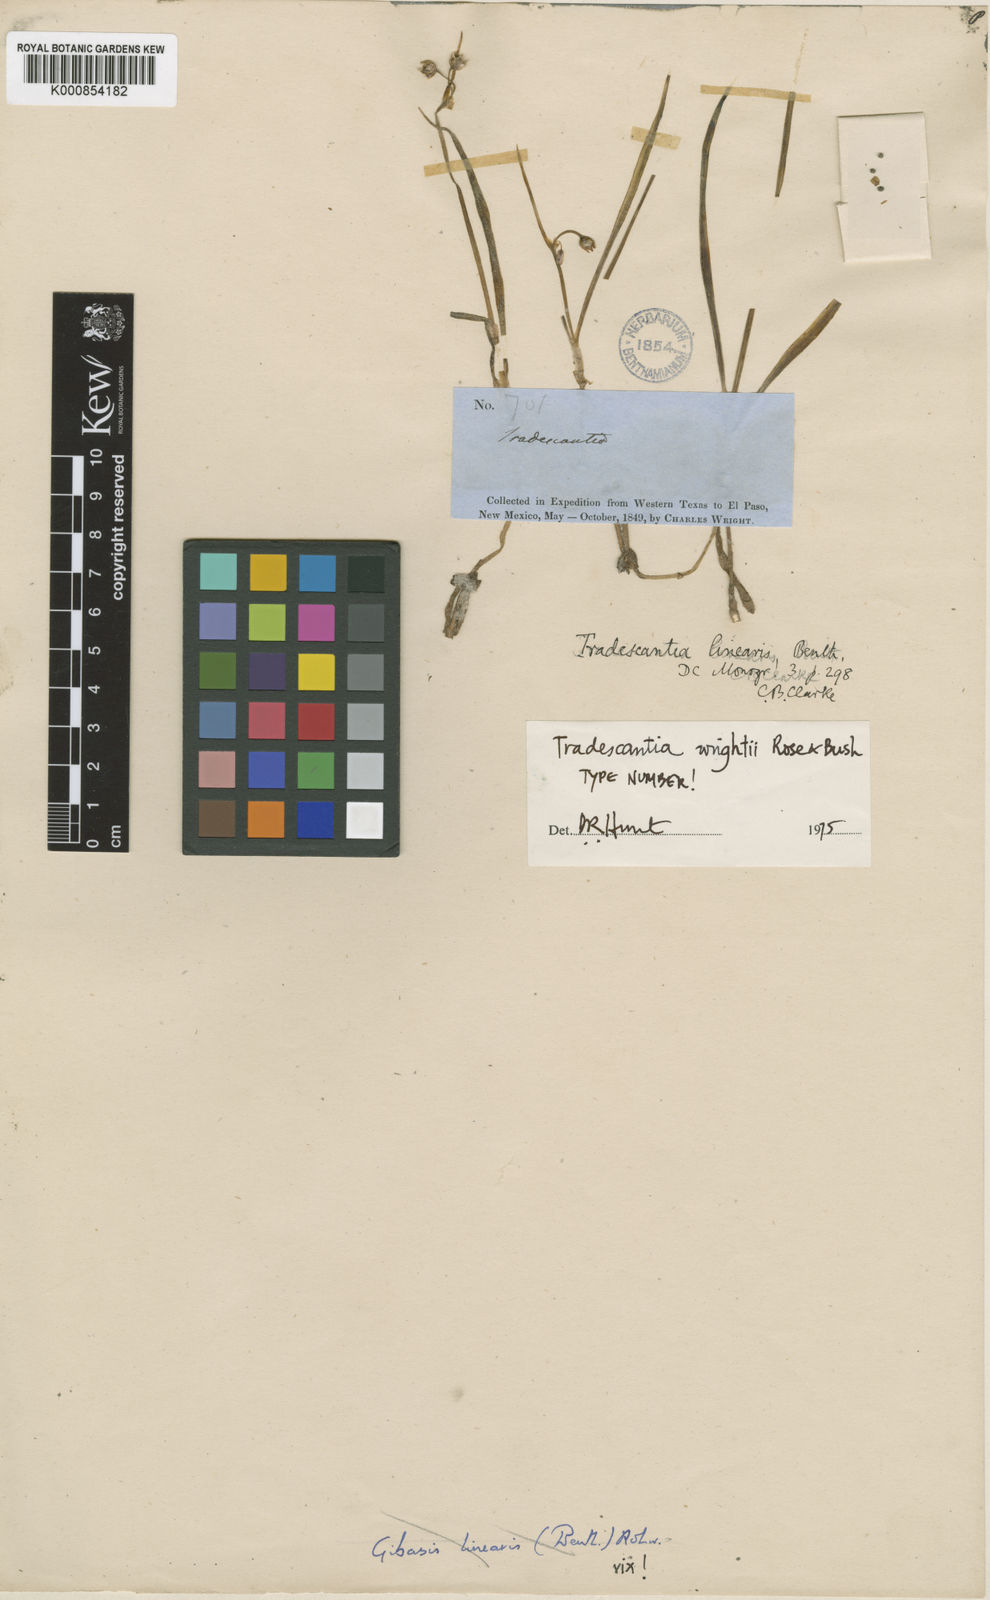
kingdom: Plantae
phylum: Tracheophyta
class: Liliopsida
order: Commelinales
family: Commelinaceae
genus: Tradescantia
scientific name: Tradescantia wrightii
